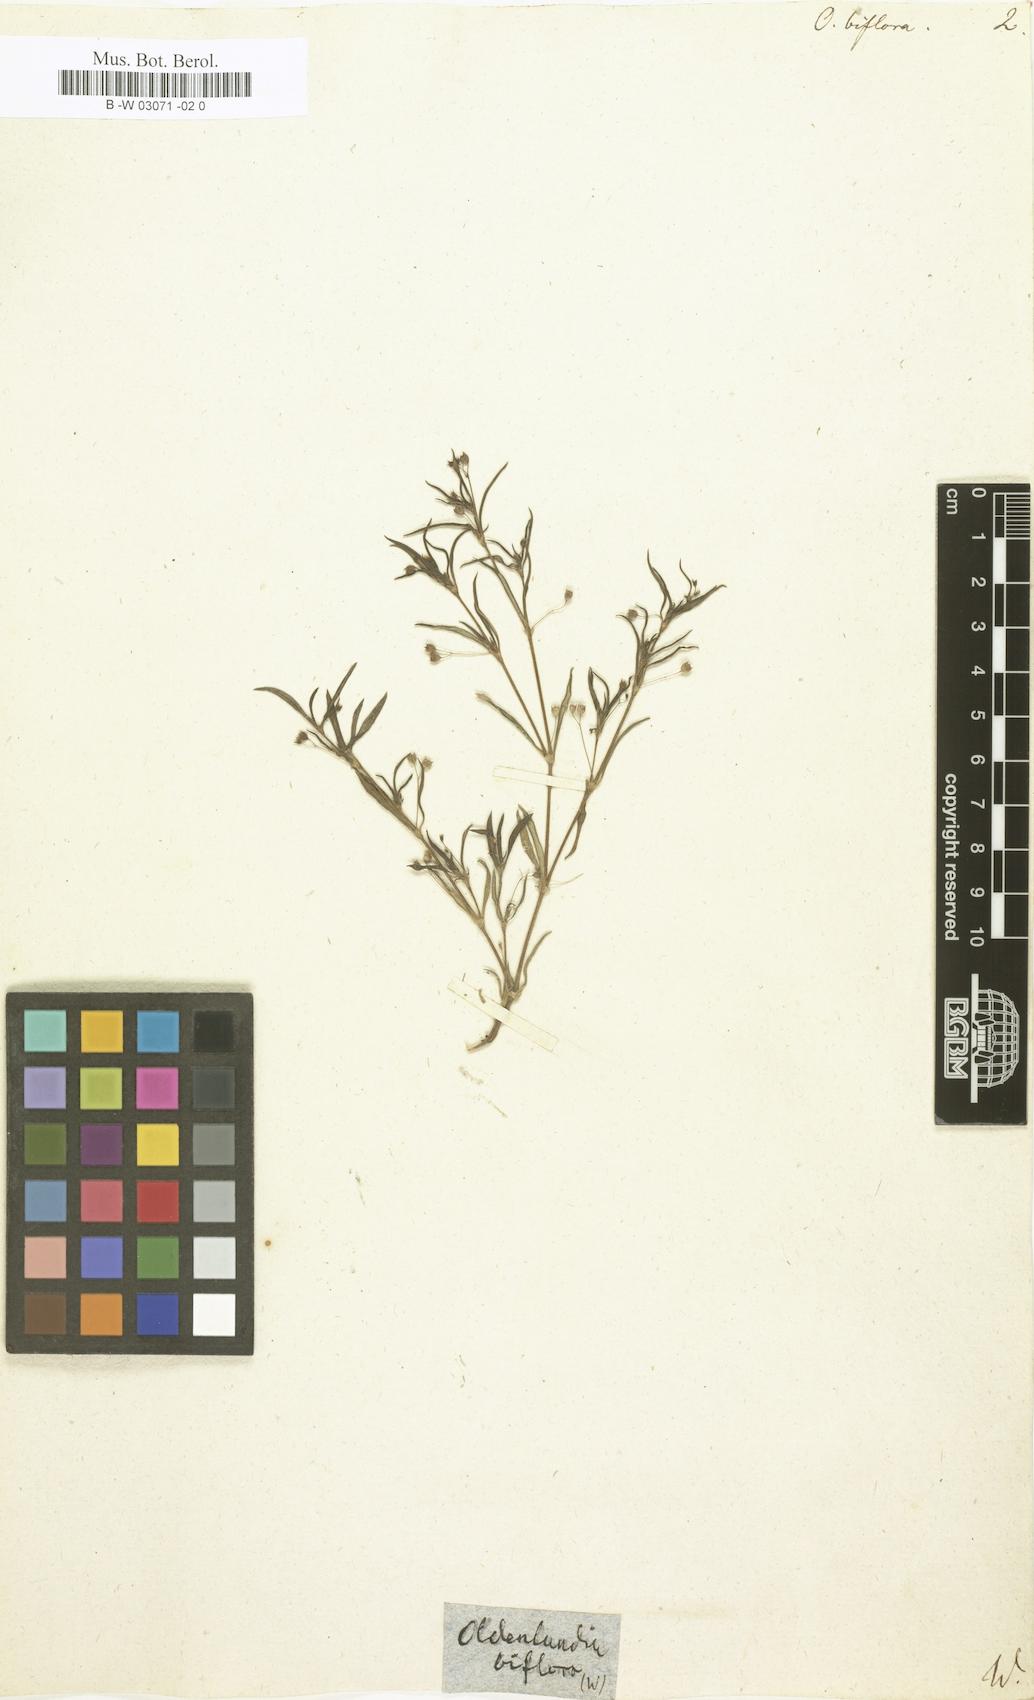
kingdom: Plantae
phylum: Tracheophyta
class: Magnoliopsida
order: Gentianales
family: Rubiaceae
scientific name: Rubiaceae
